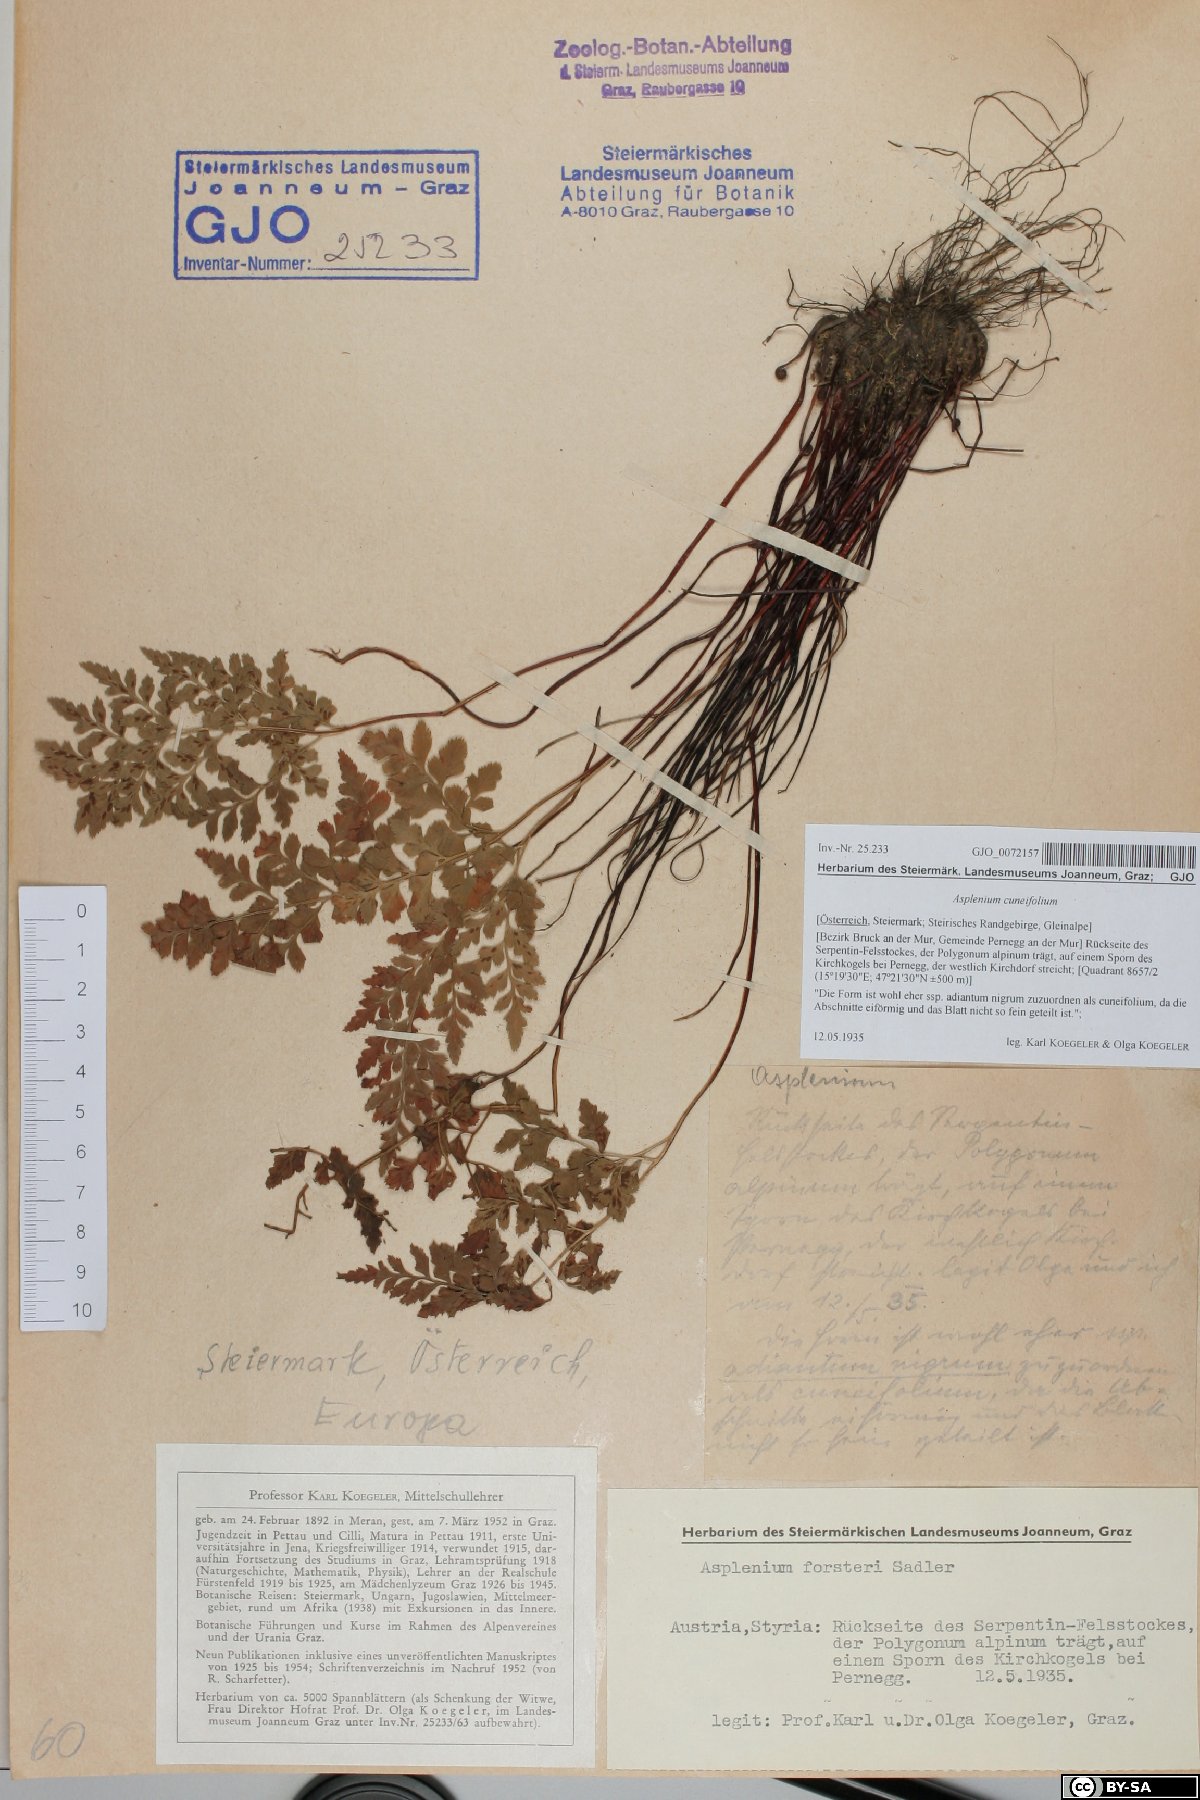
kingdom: Plantae
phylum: Tracheophyta
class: Polypodiopsida
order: Polypodiales
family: Aspleniaceae
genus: Asplenium
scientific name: Asplenium cuneifolium
